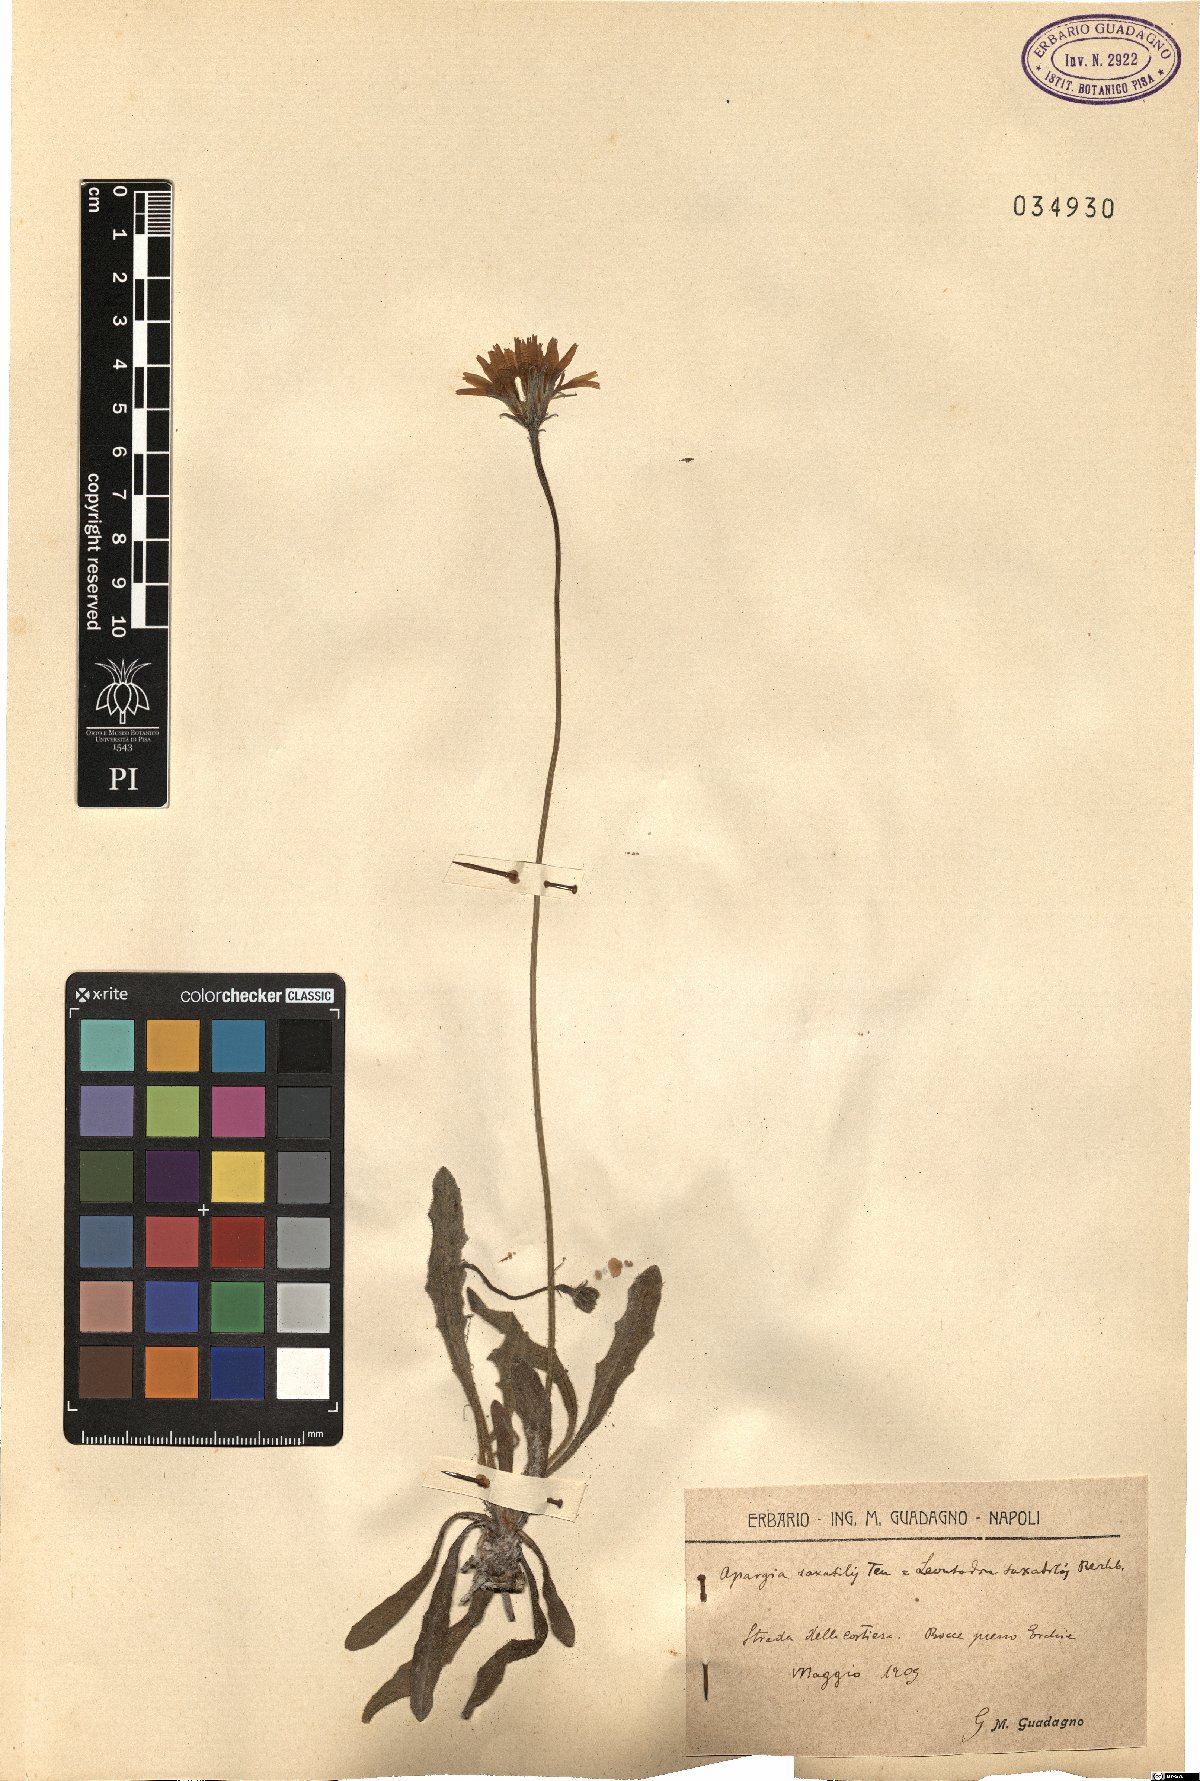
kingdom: Plantae
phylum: Tracheophyta
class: Magnoliopsida
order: Asterales
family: Asteraceae
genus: Leontodon
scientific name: Leontodon crispus
